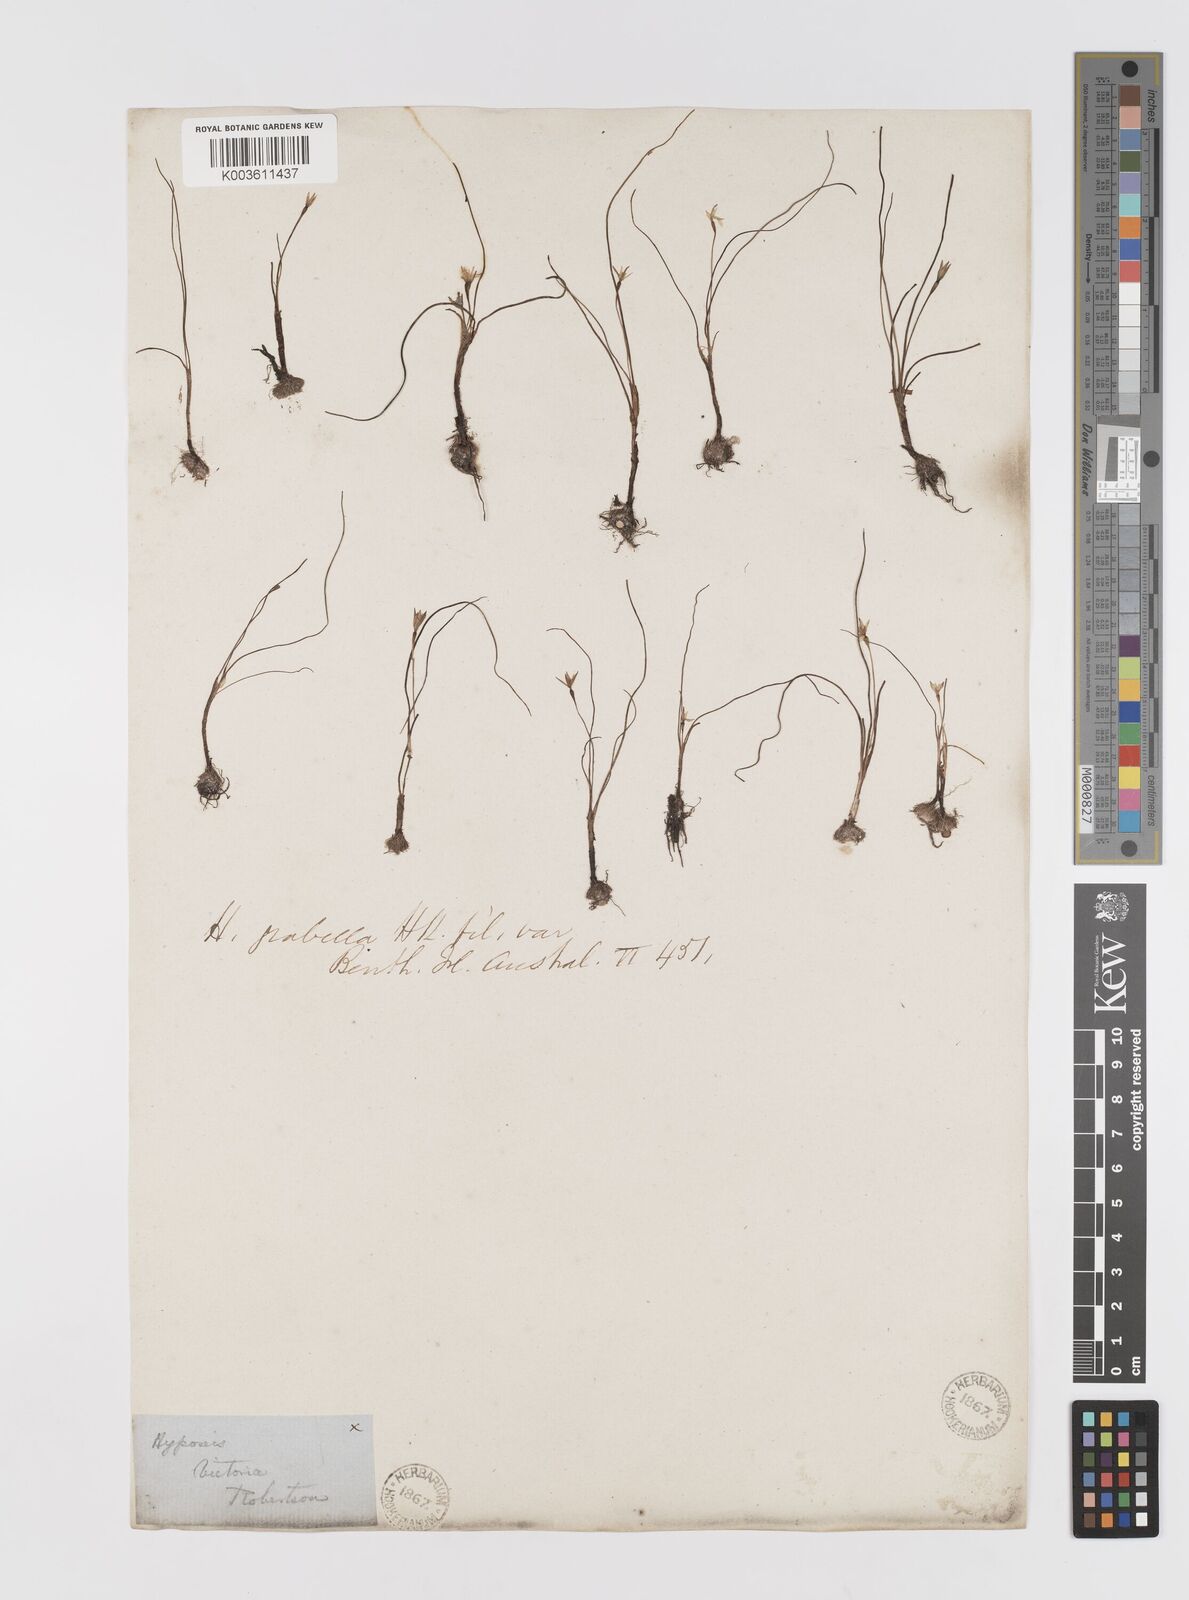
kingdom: Plantae
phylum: Tracheophyta
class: Liliopsida
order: Asparagales
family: Hypoxidaceae
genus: Pauridia
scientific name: Pauridia glabella
